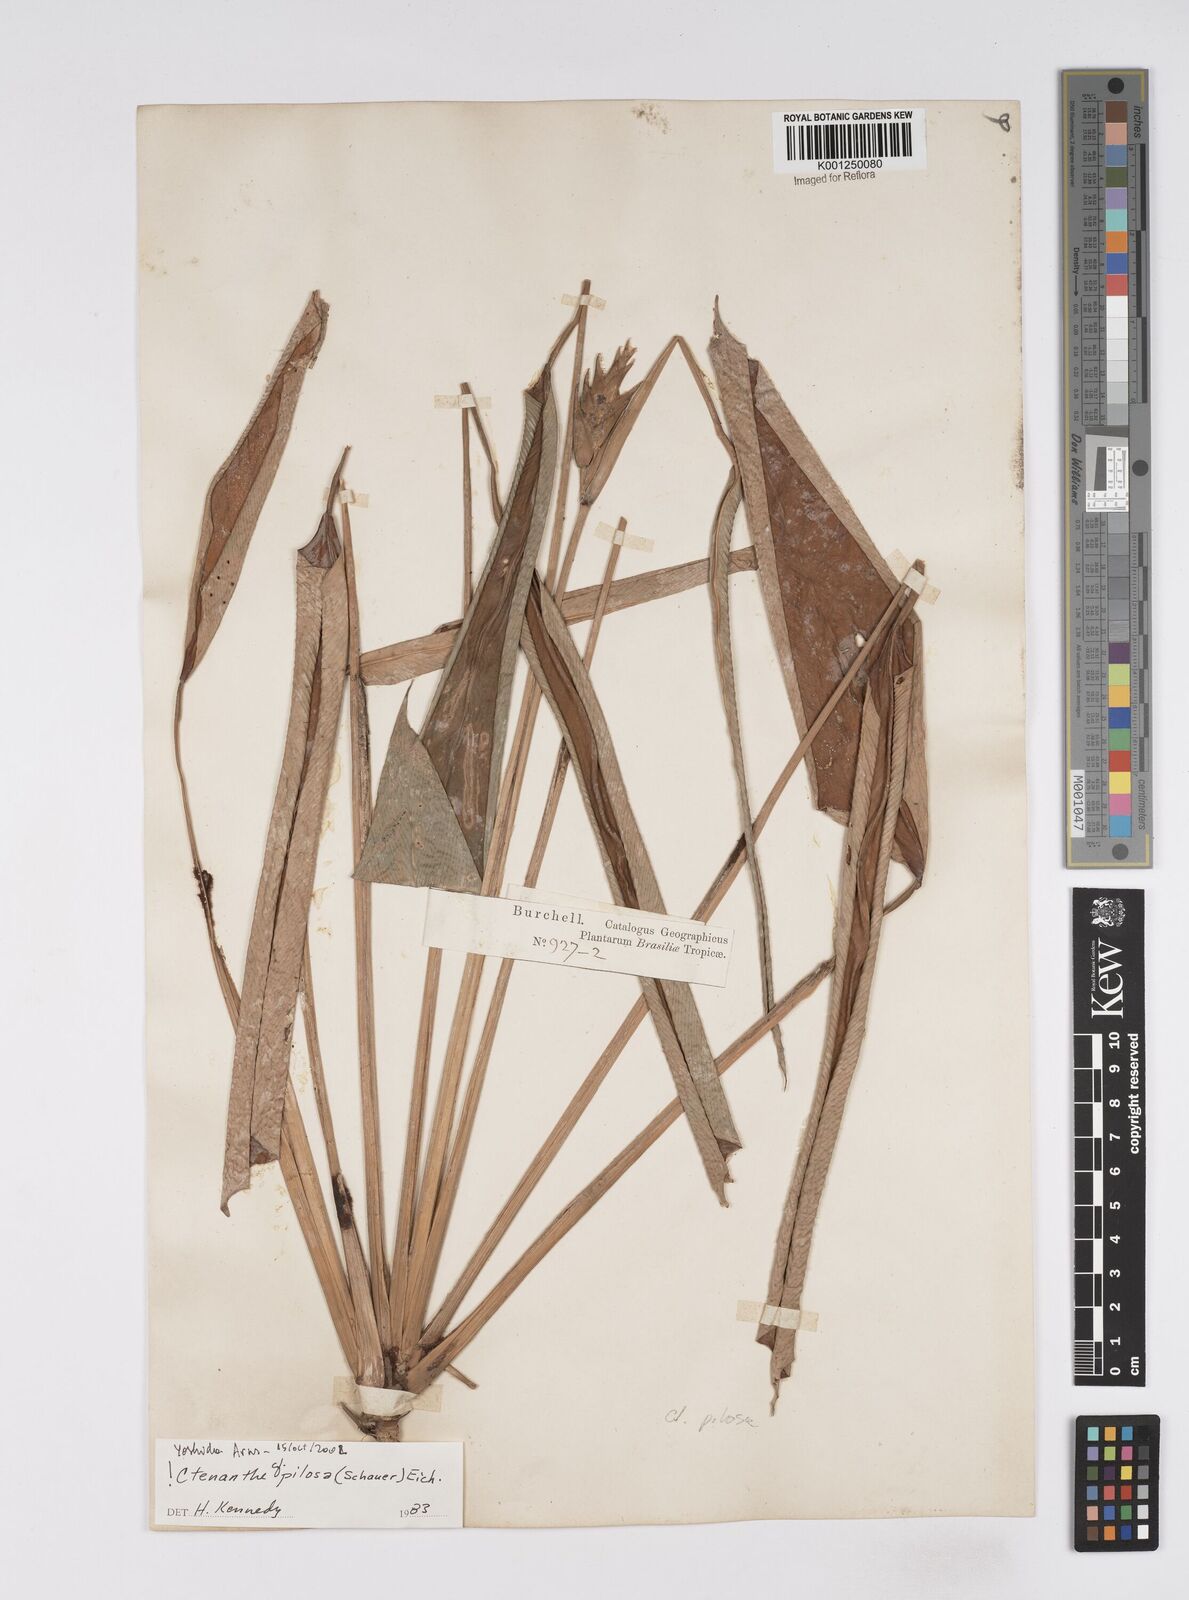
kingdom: Plantae
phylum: Tracheophyta
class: Liliopsida
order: Zingiberales
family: Marantaceae
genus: Ctenanthe
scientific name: Ctenanthe marantifolia
